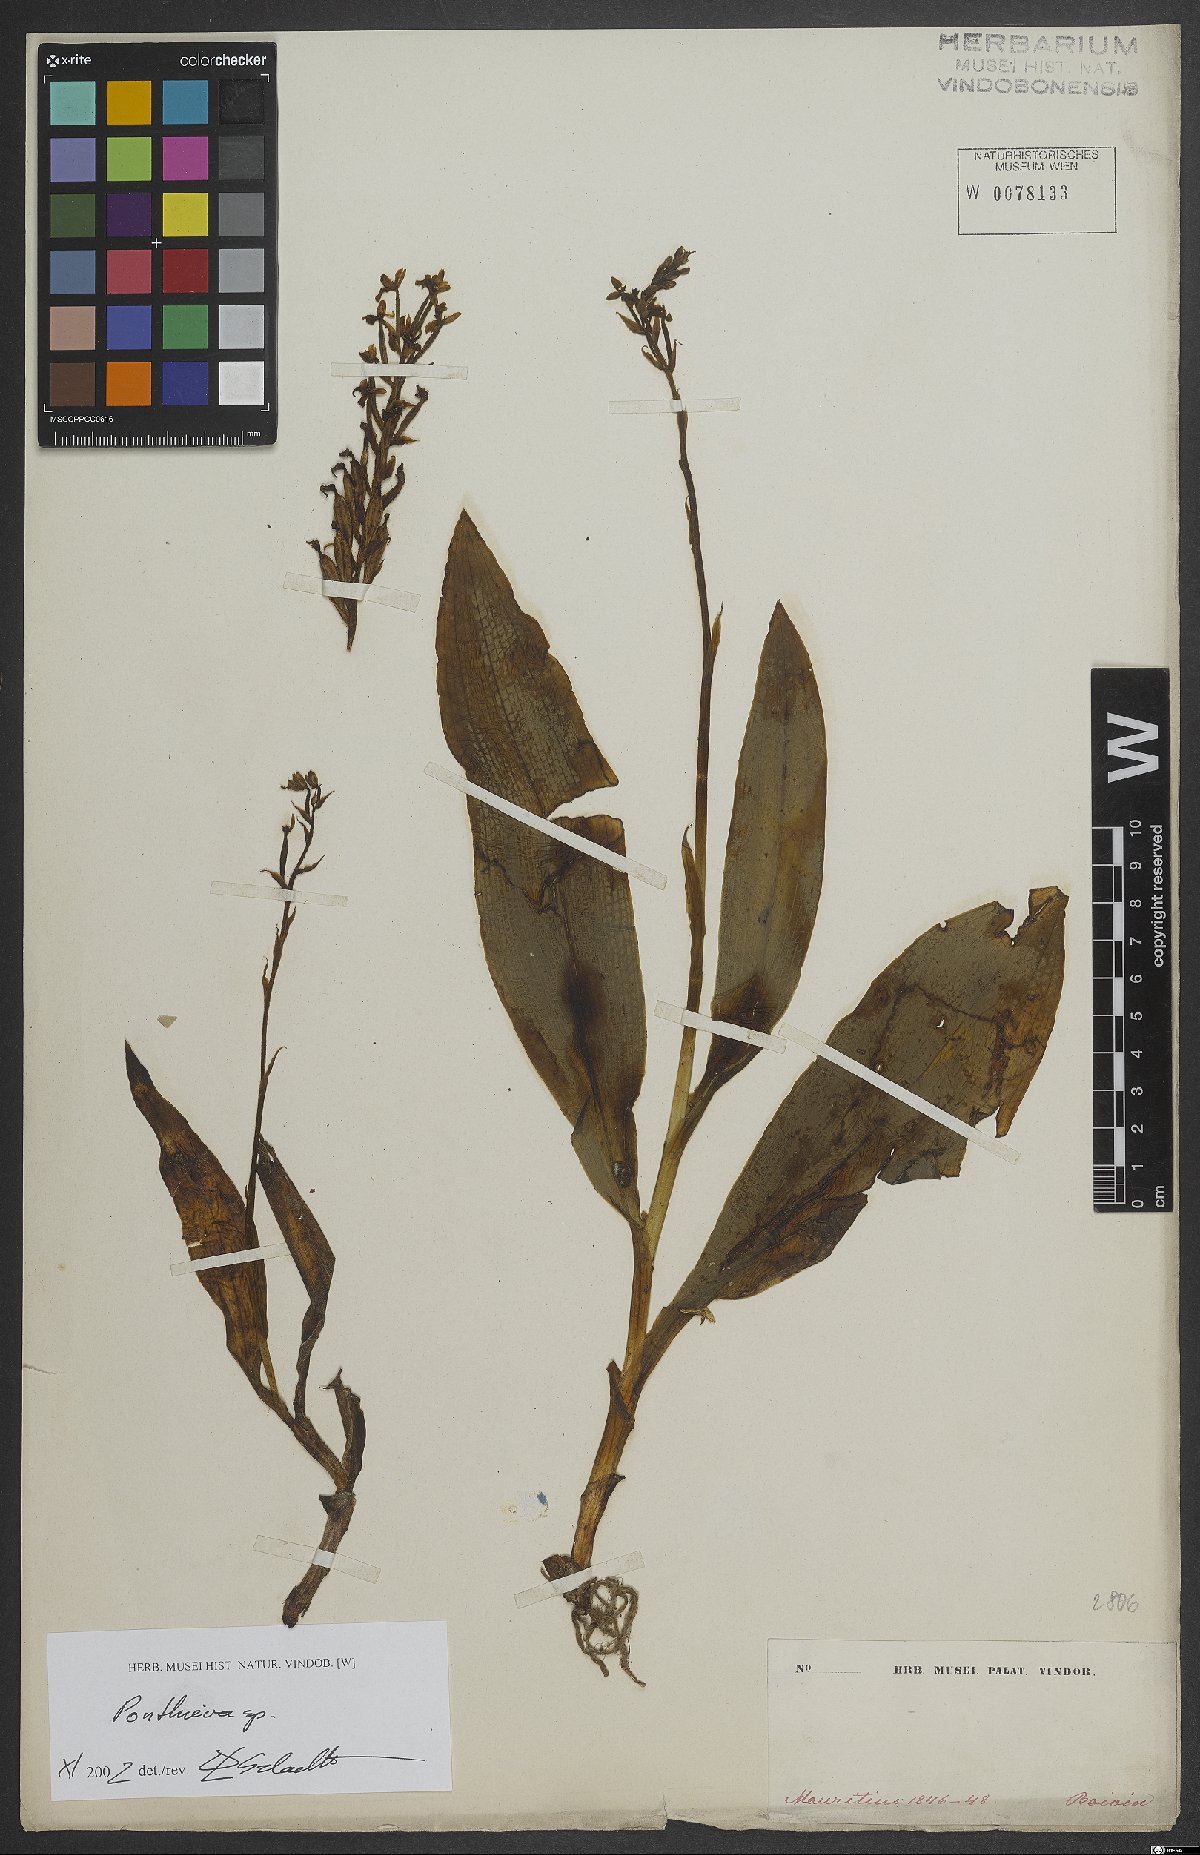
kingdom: Plantae
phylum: Tracheophyta
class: Liliopsida
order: Asparagales
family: Orchidaceae
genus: Ponthieva
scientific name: Ponthieva
